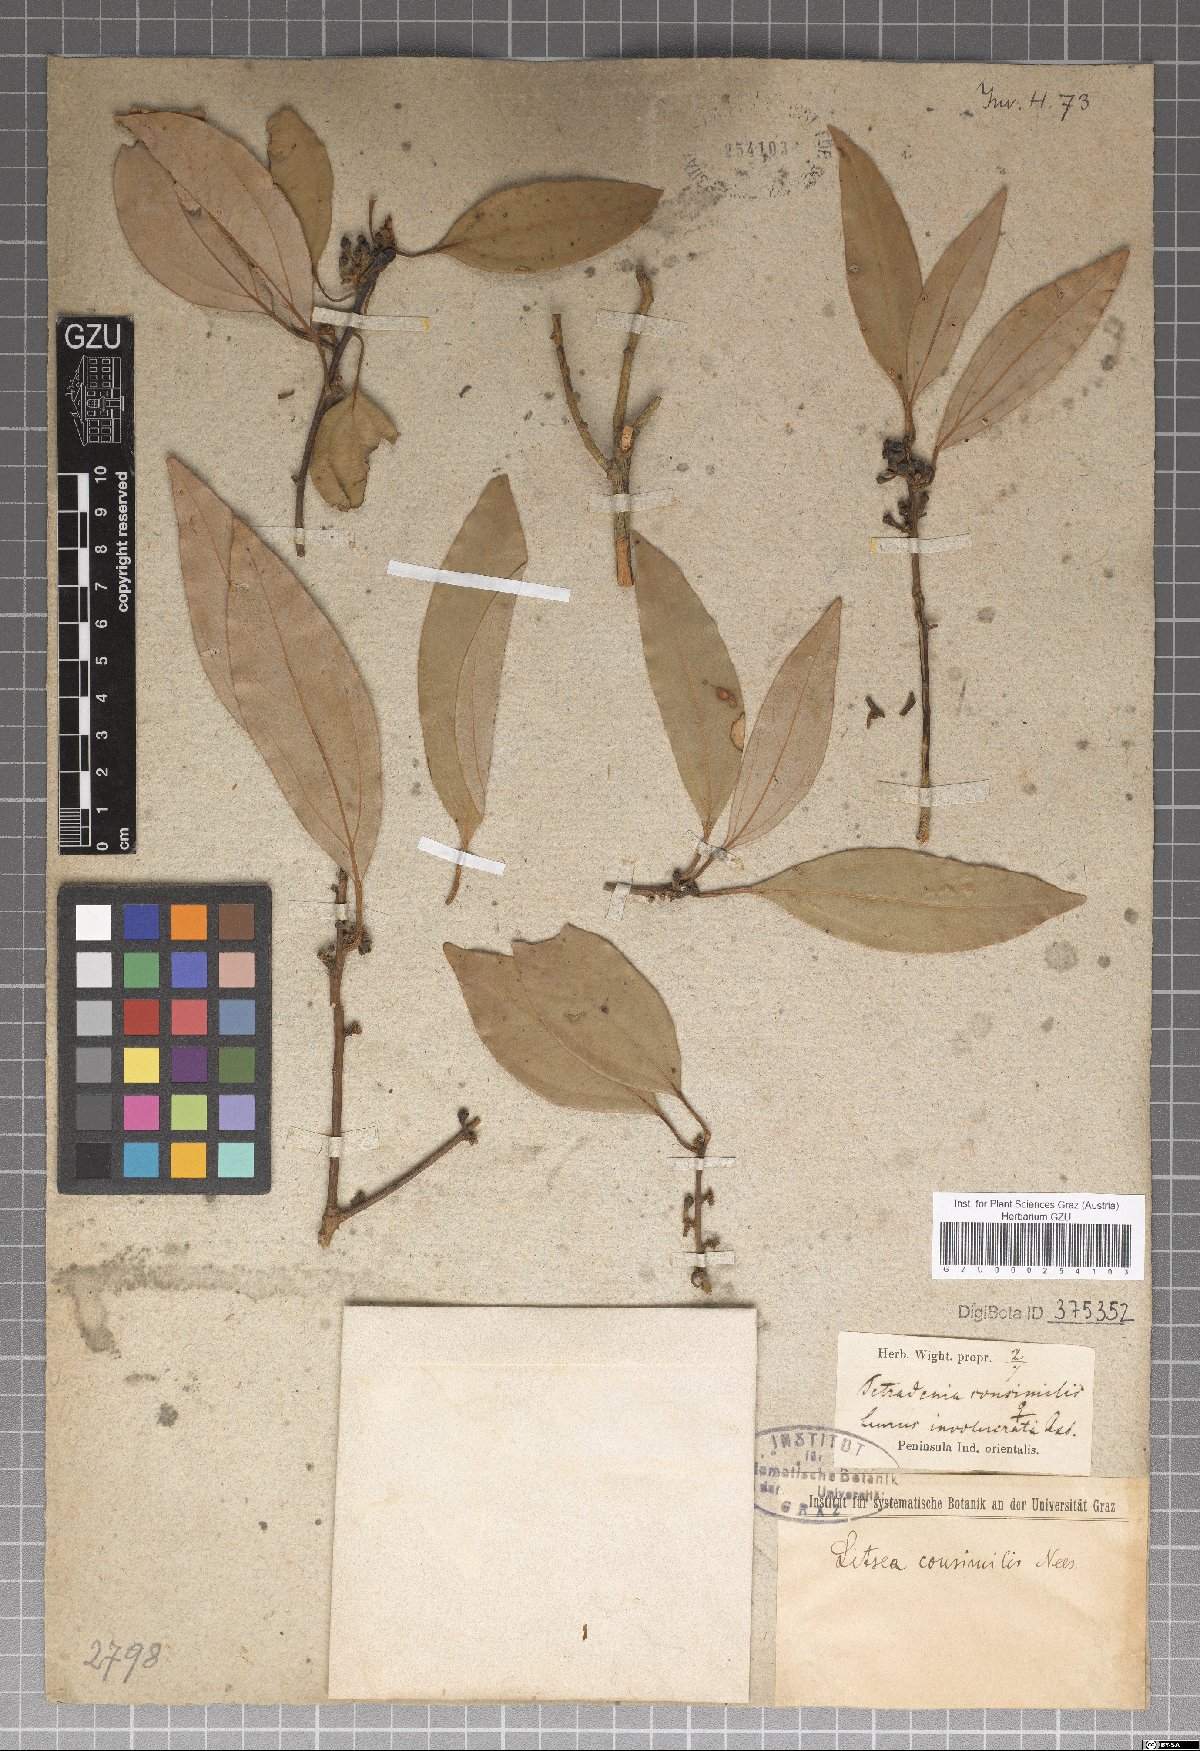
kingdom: Plantae
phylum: Tracheophyta
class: Magnoliopsida
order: Laurales
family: Lauraceae
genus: Neolitsea
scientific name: Neolitsea pallens
